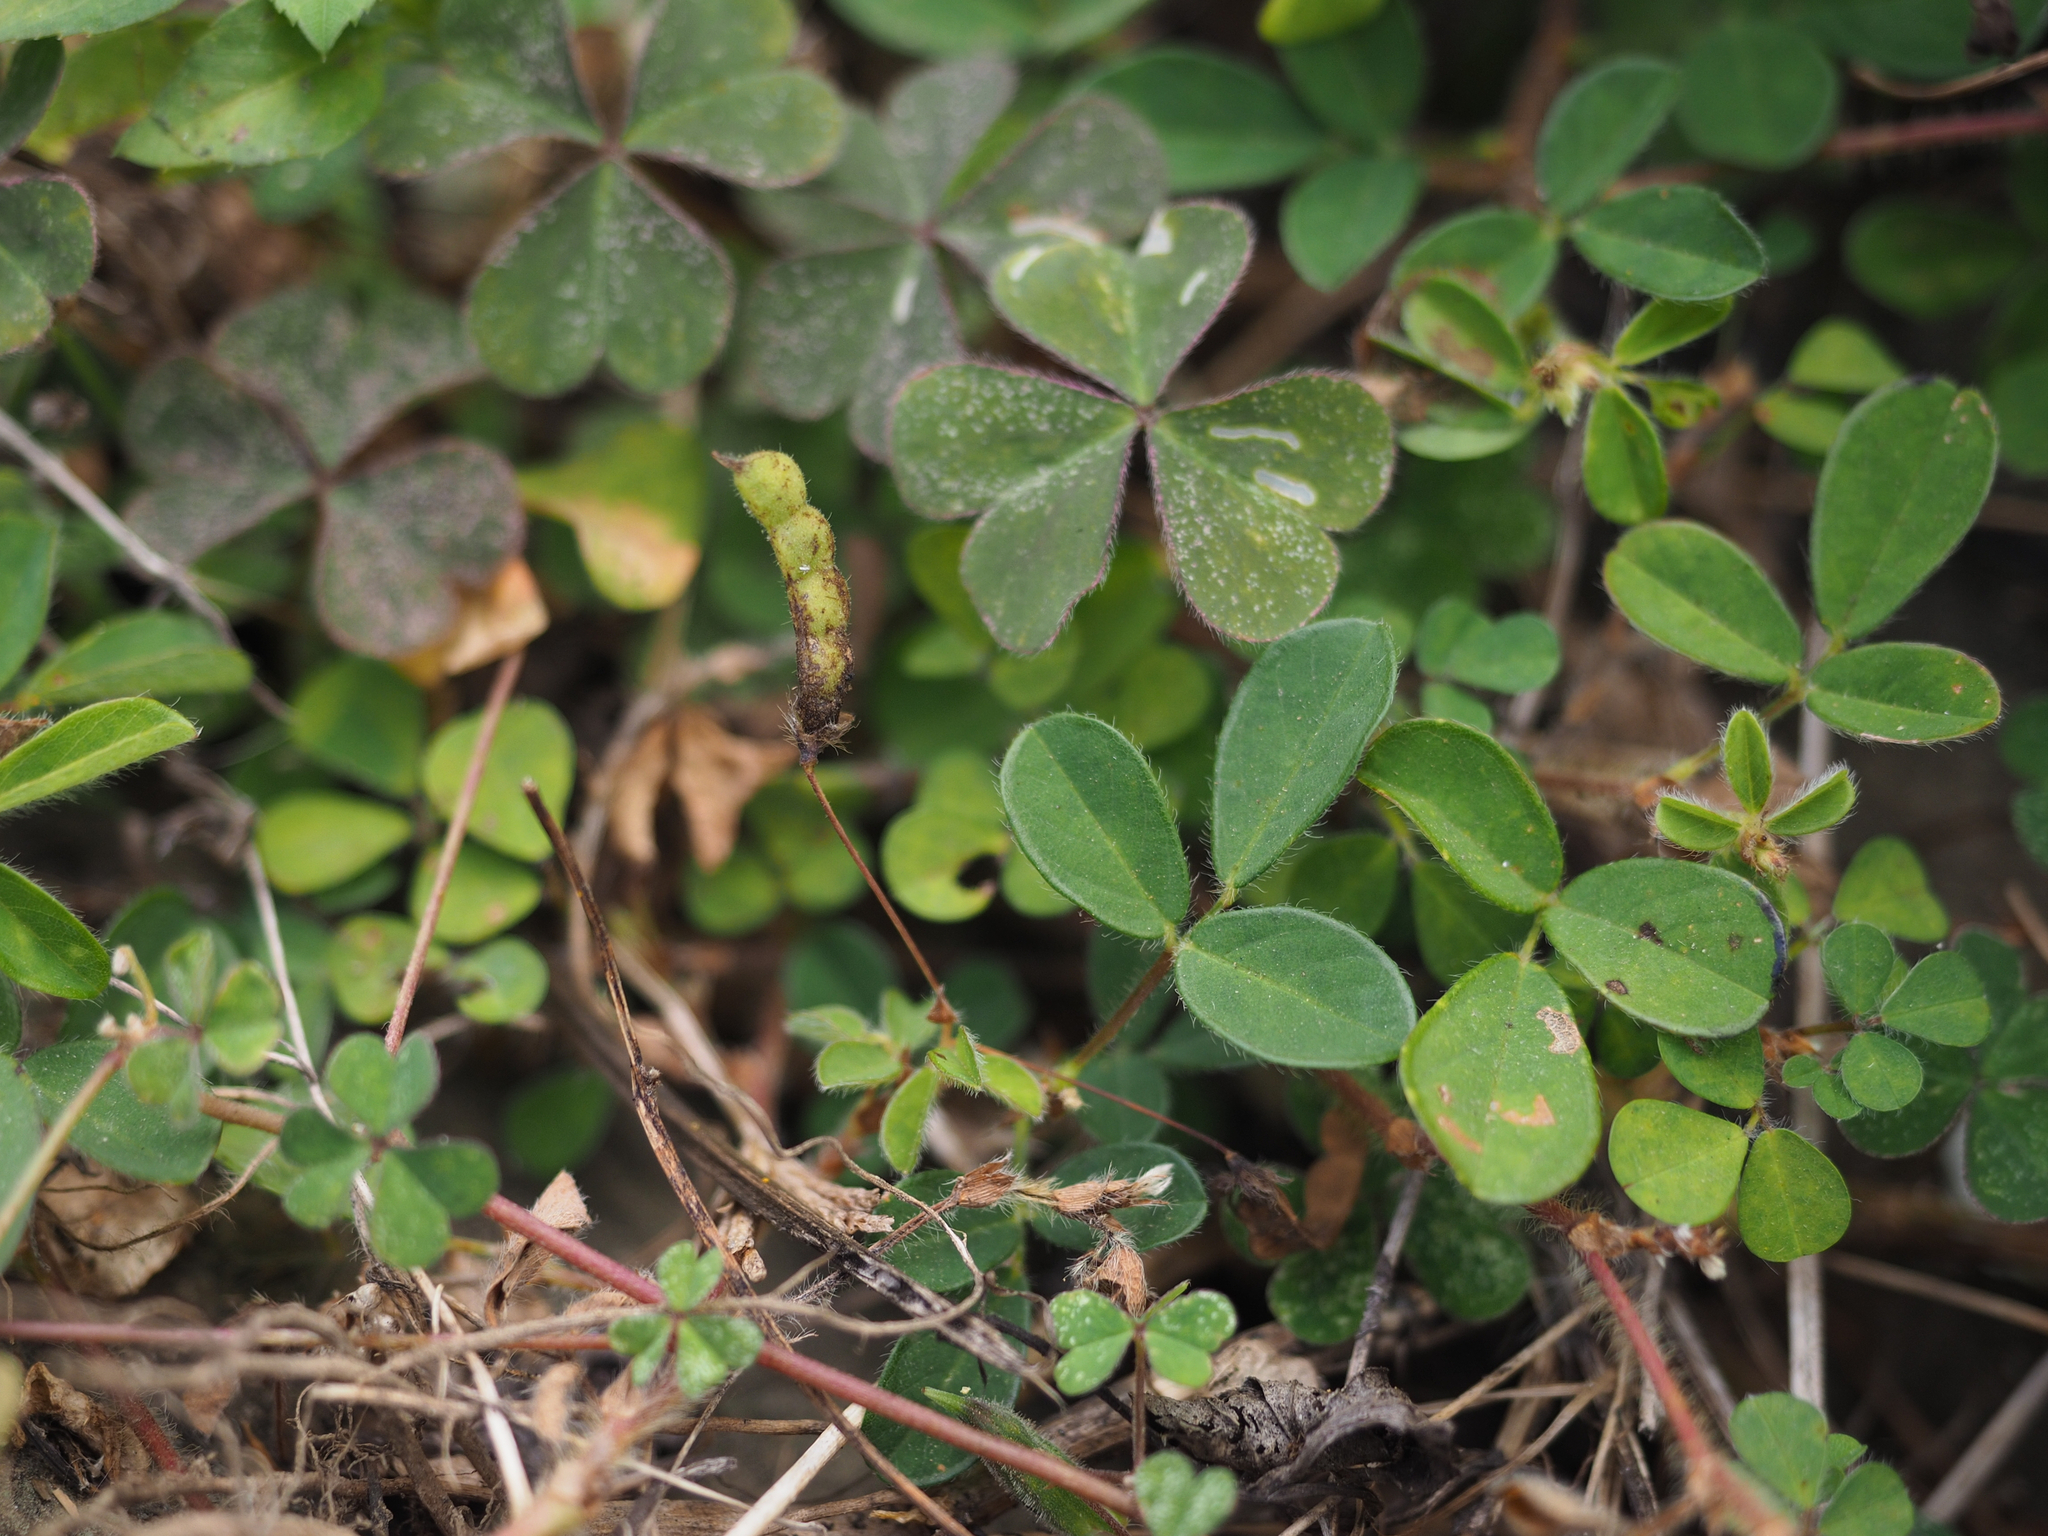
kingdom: Plantae
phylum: Tracheophyta
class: Magnoliopsida
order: Fabales
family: Fabaceae
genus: Grona
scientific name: Grona heterophylla
